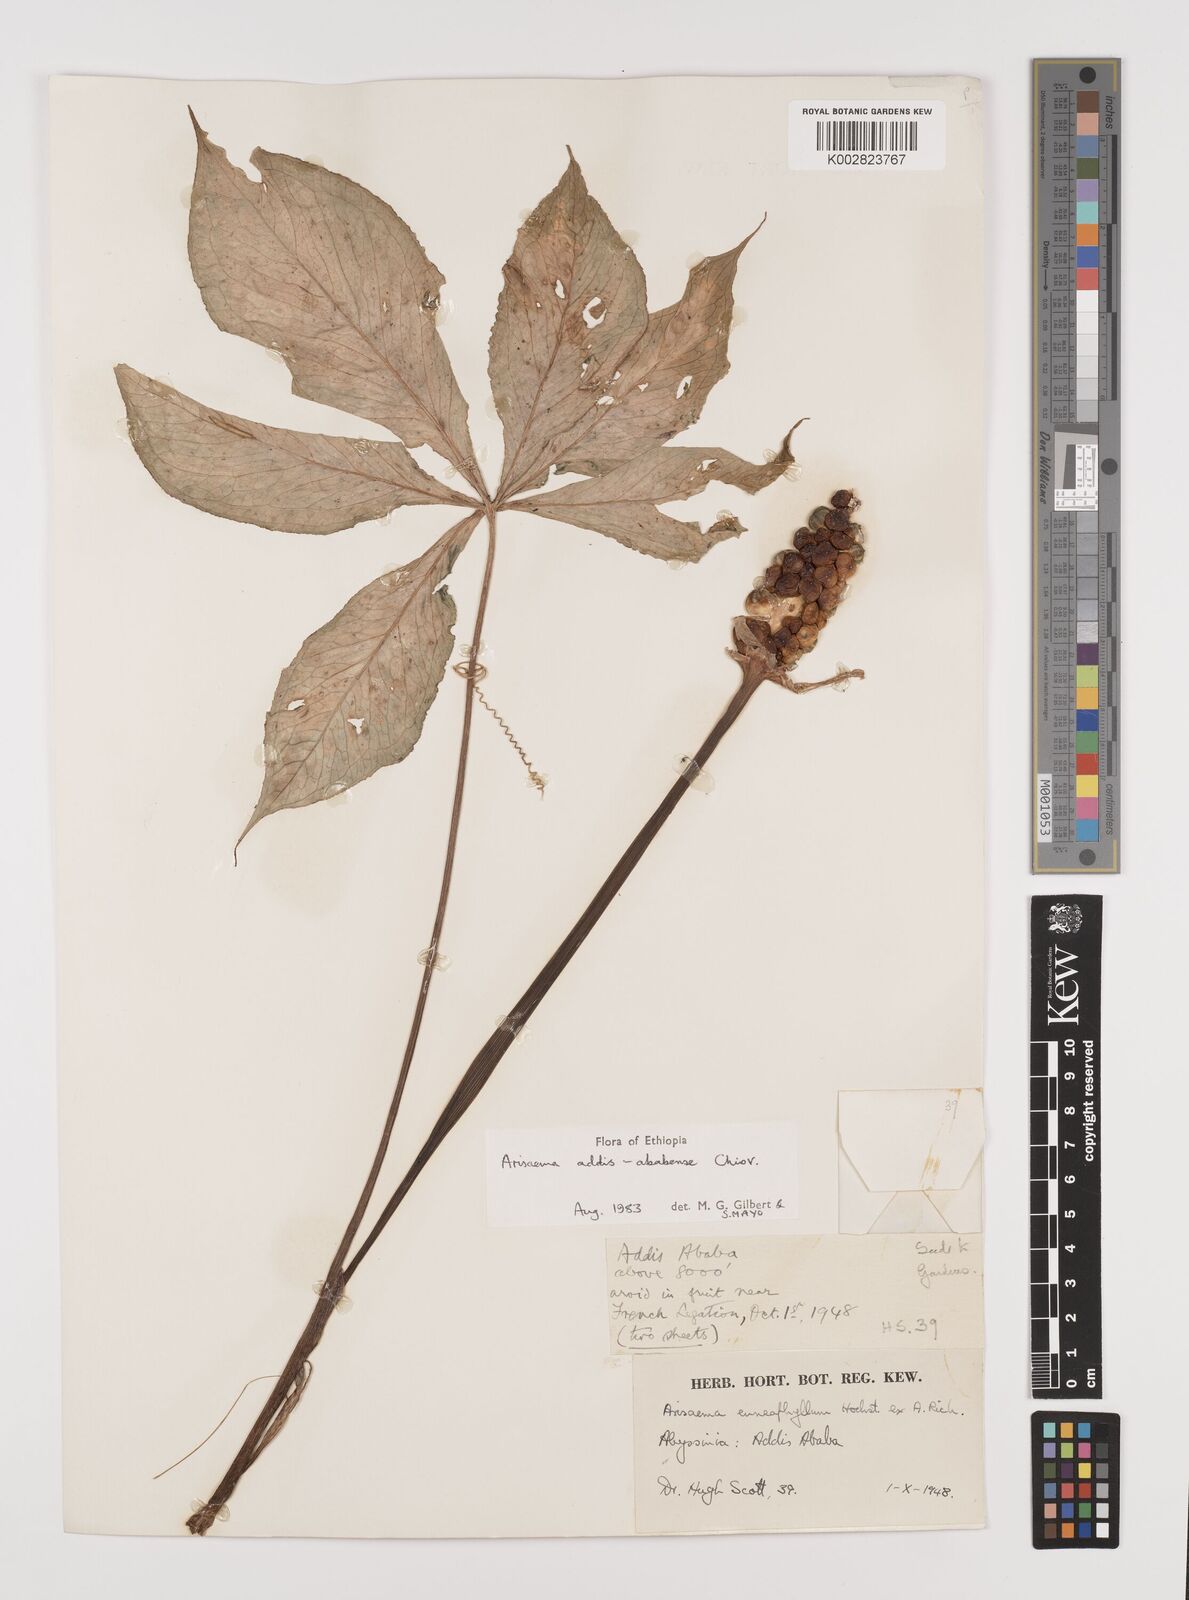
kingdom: Plantae
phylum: Tracheophyta
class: Liliopsida
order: Alismatales
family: Araceae
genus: Arisaema
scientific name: Arisaema schimperianum
